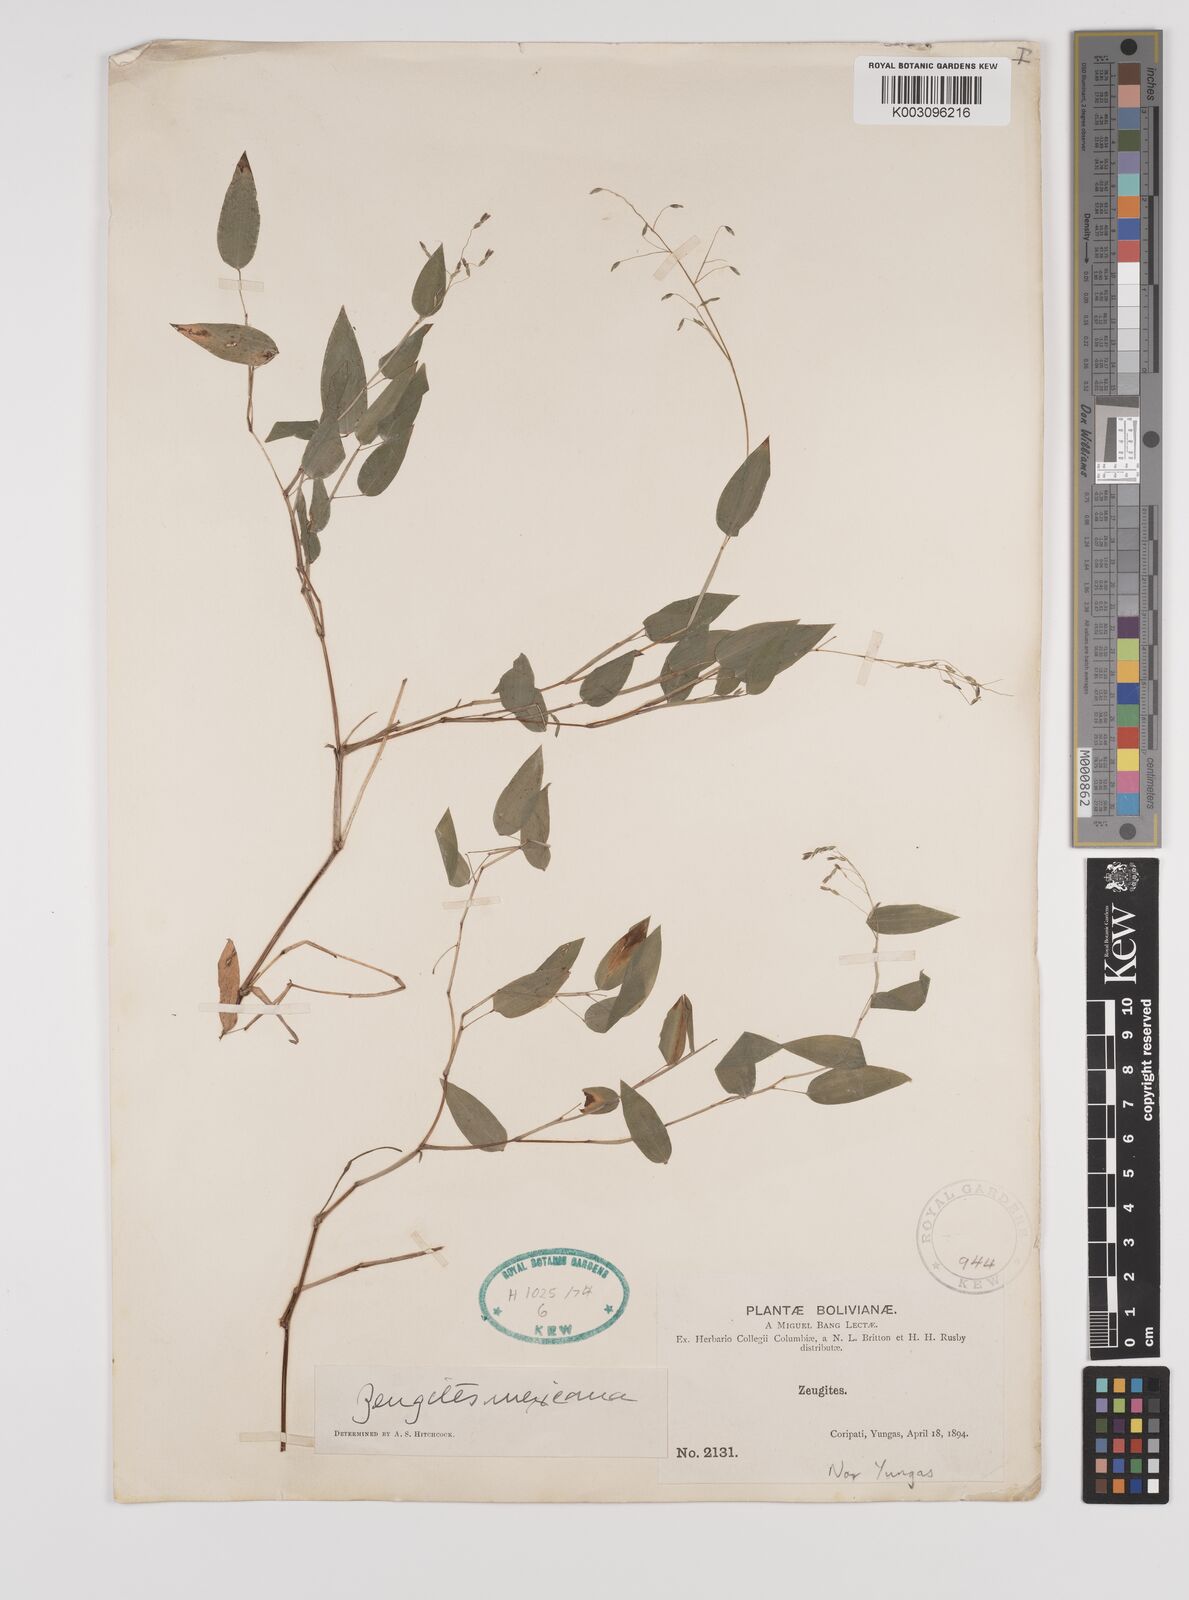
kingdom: Plantae
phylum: Tracheophyta
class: Liliopsida
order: Poales
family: Poaceae
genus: Zeugites
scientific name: Zeugites americanus
